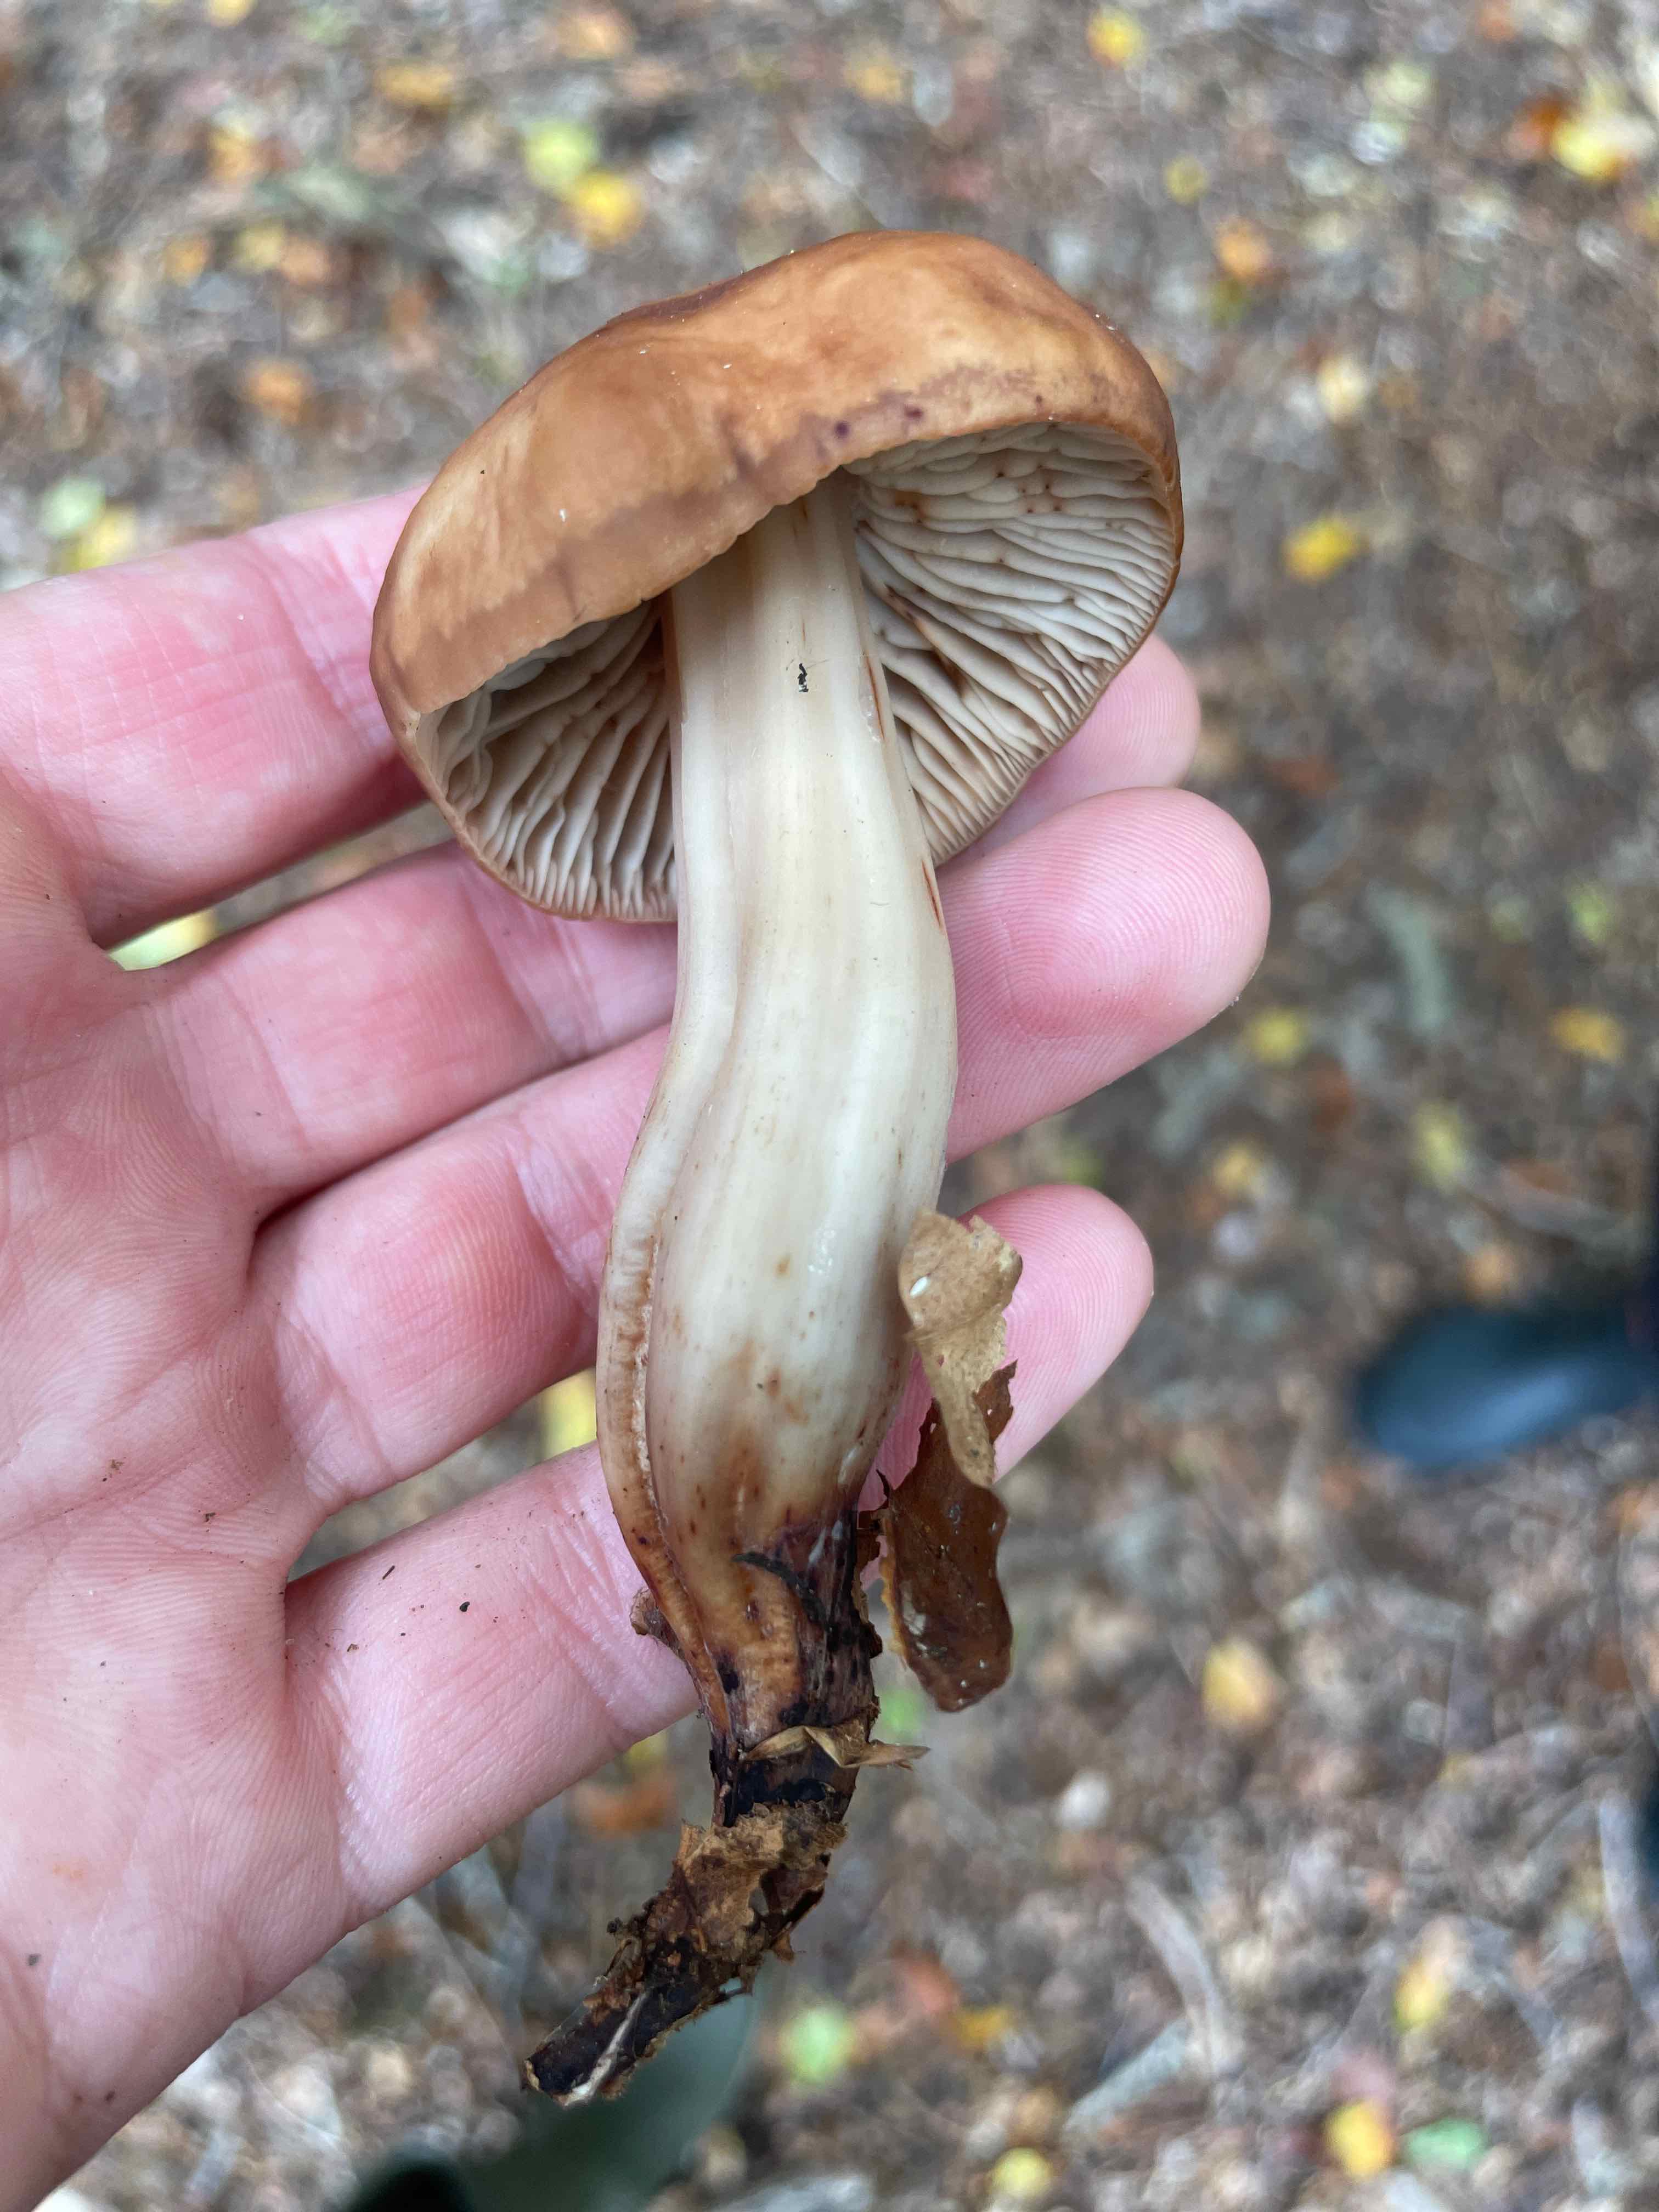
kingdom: Fungi
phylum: Basidiomycota
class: Agaricomycetes
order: Agaricales
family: Omphalotaceae
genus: Gymnopus
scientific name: Gymnopus fusipes
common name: tenstokket fladhat
